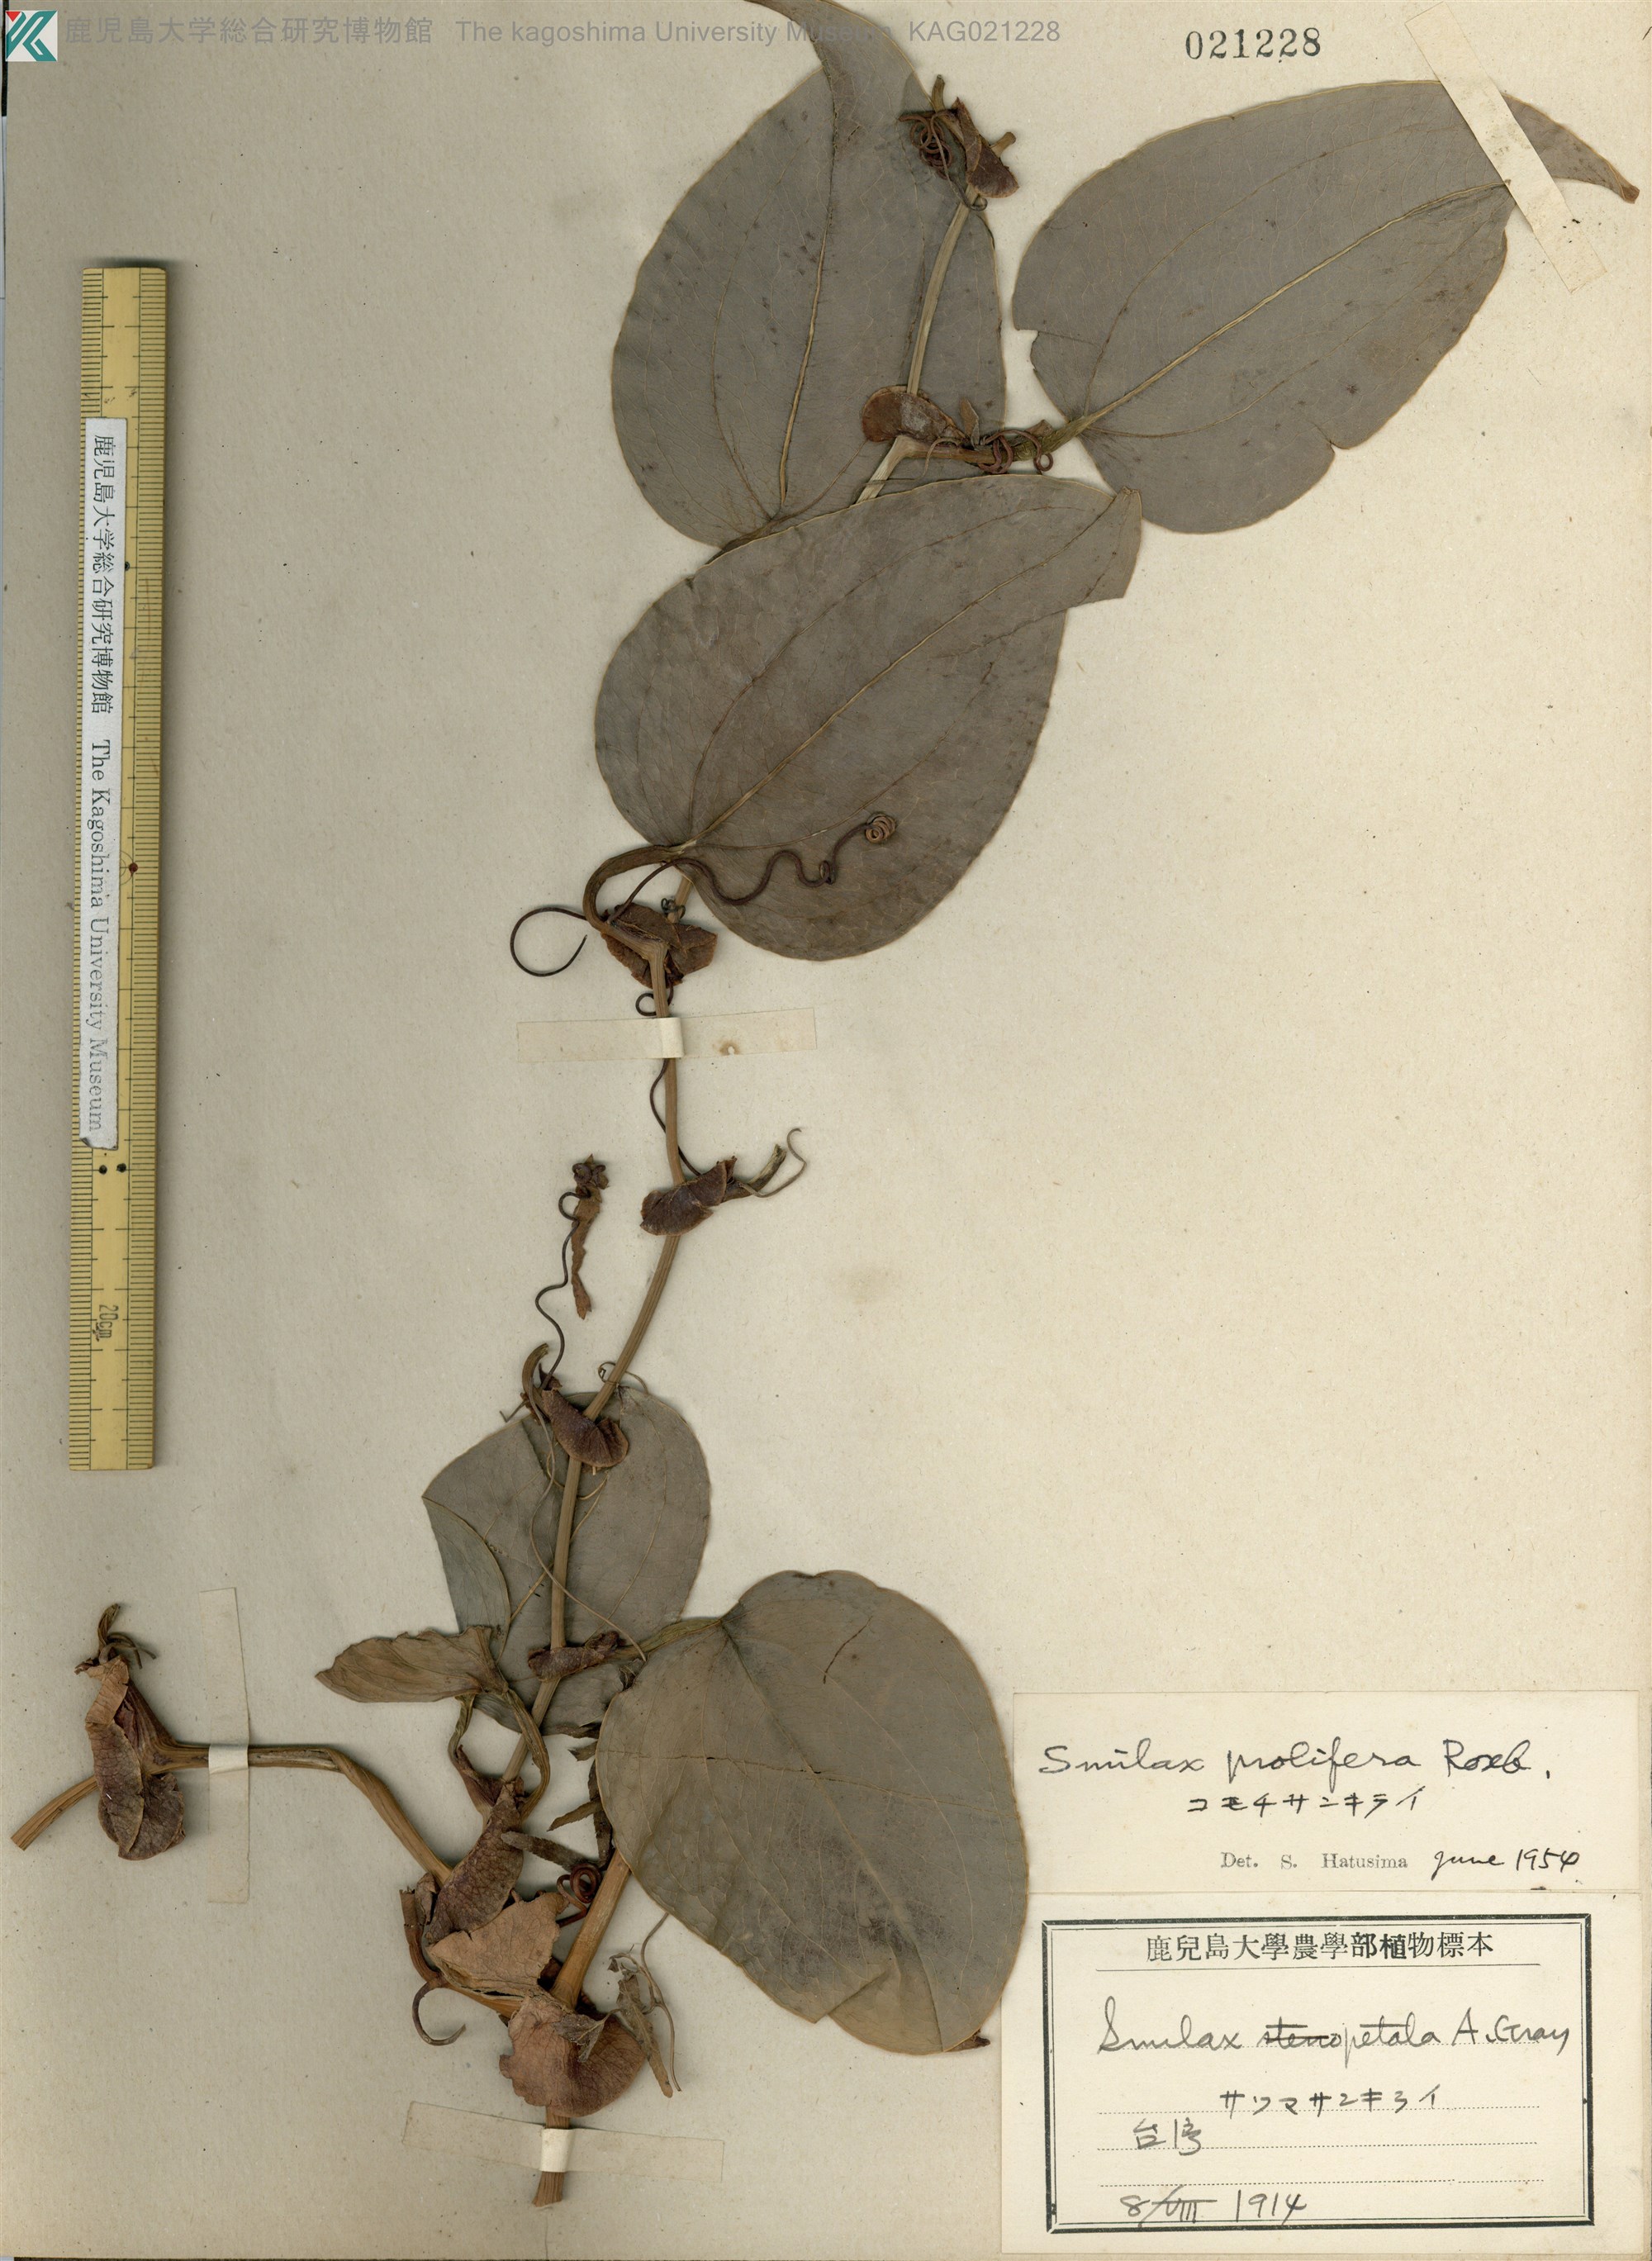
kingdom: Plantae
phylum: Tracheophyta
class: Liliopsida
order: Liliales
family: Smilacaceae
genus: Smilax
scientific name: Smilax prolifera
